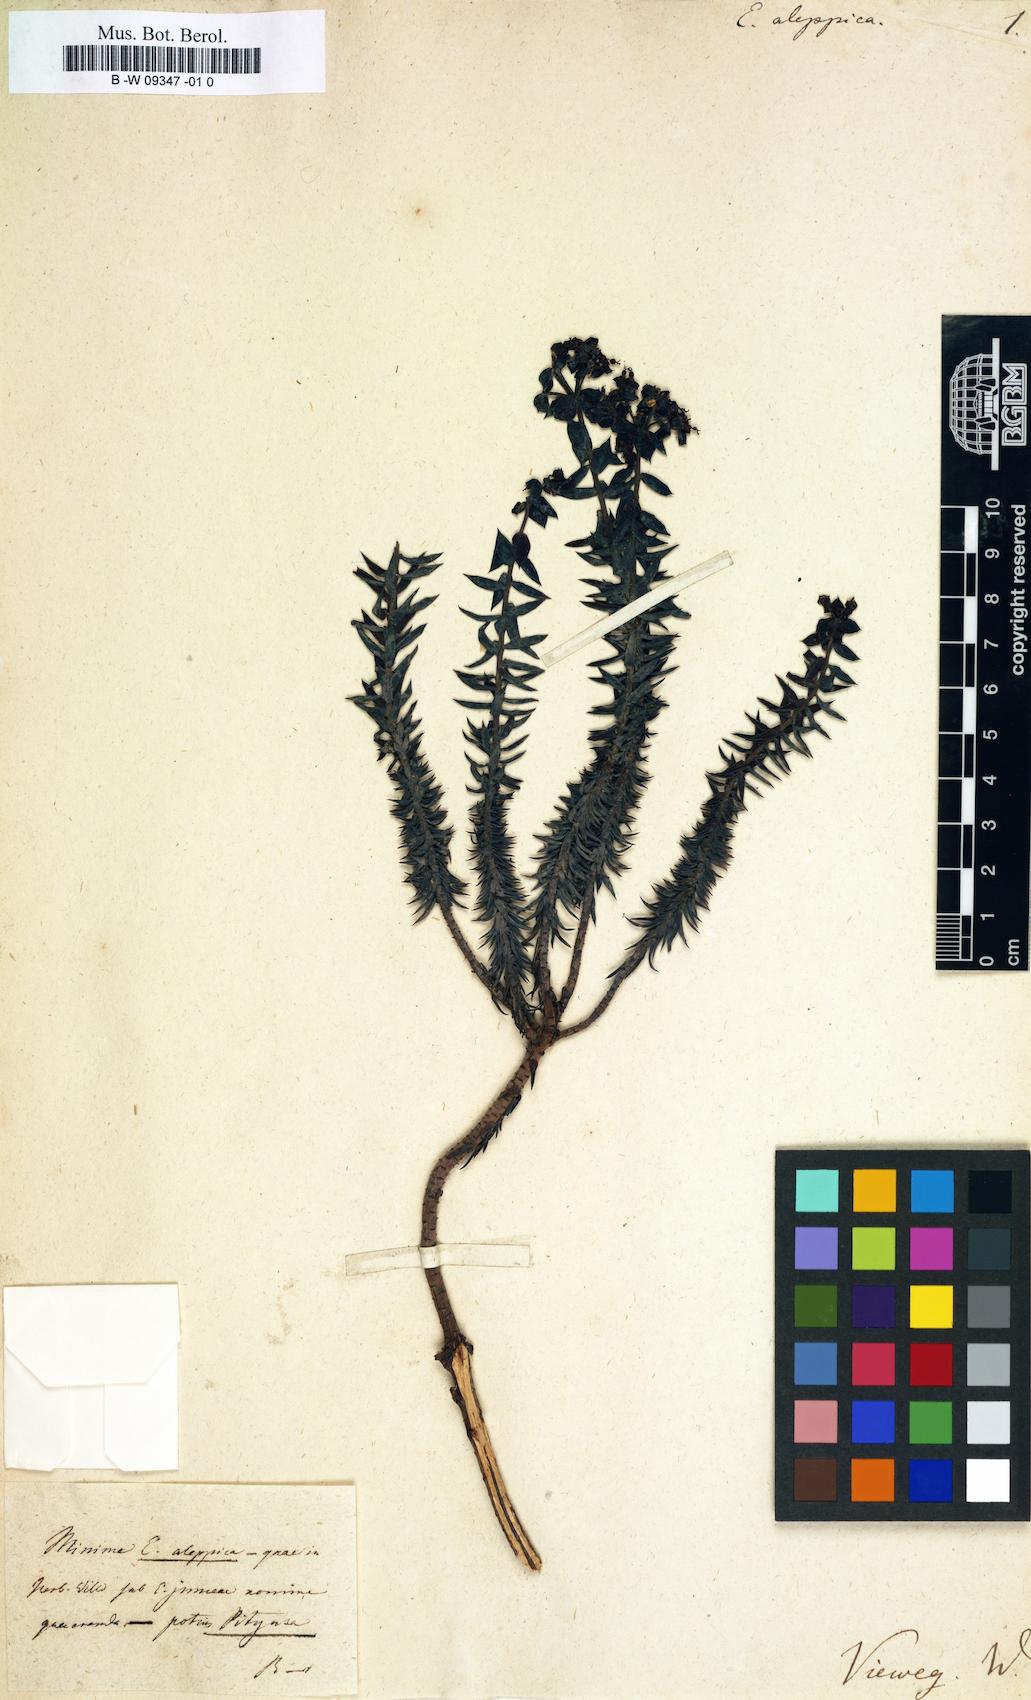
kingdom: Plantae
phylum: Tracheophyta
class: Magnoliopsida
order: Malpighiales
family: Euphorbiaceae
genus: Euphorbia
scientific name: Euphorbia aleppica
